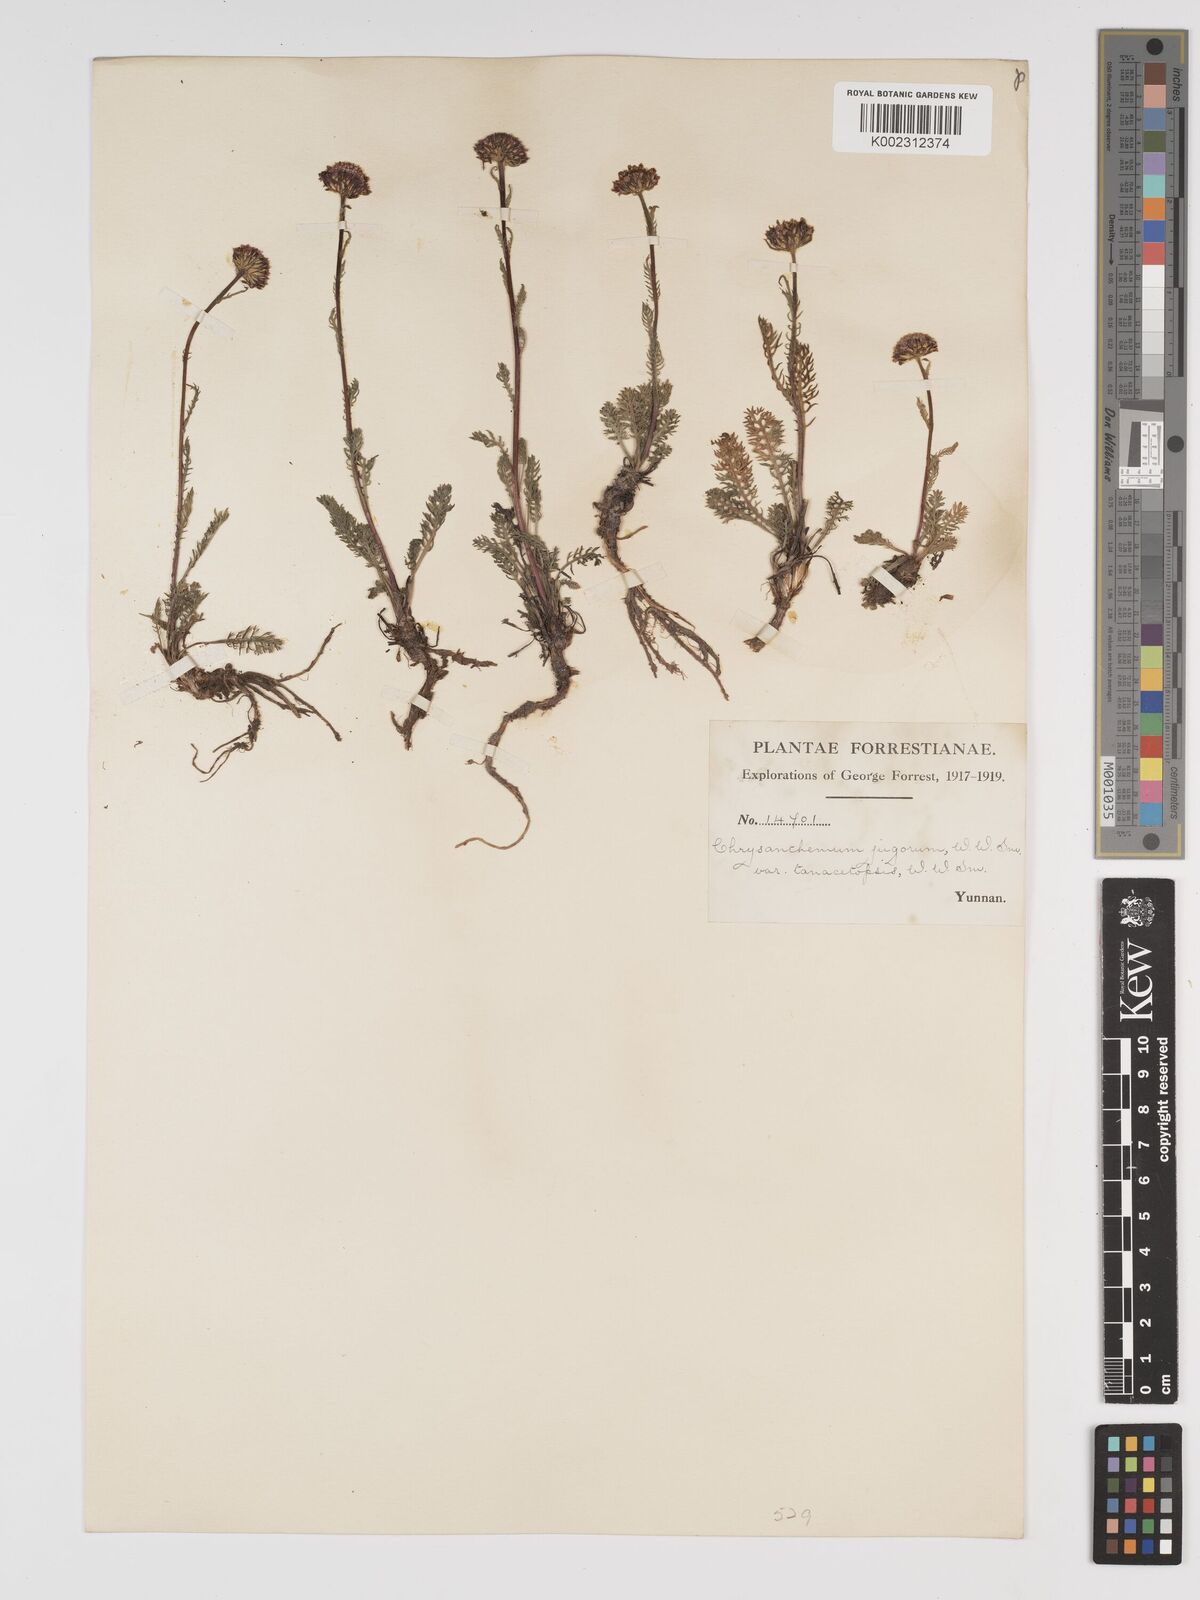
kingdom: Plantae
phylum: Tracheophyta
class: Magnoliopsida
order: Asterales
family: Asteraceae
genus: Tanacetum
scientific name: Tanacetum tatsienense
